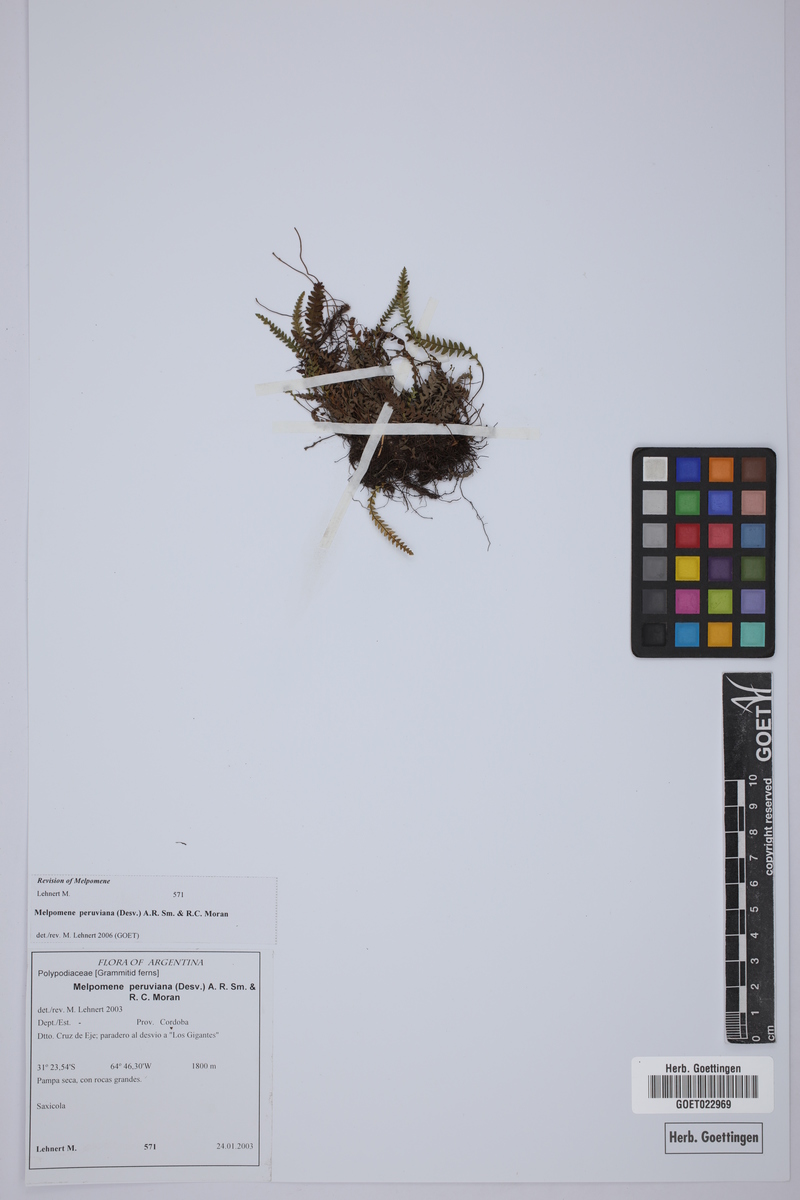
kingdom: Plantae
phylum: Tracheophyta
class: Polypodiopsida
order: Polypodiales
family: Polypodiaceae
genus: Melpomene
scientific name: Melpomene peruviana
